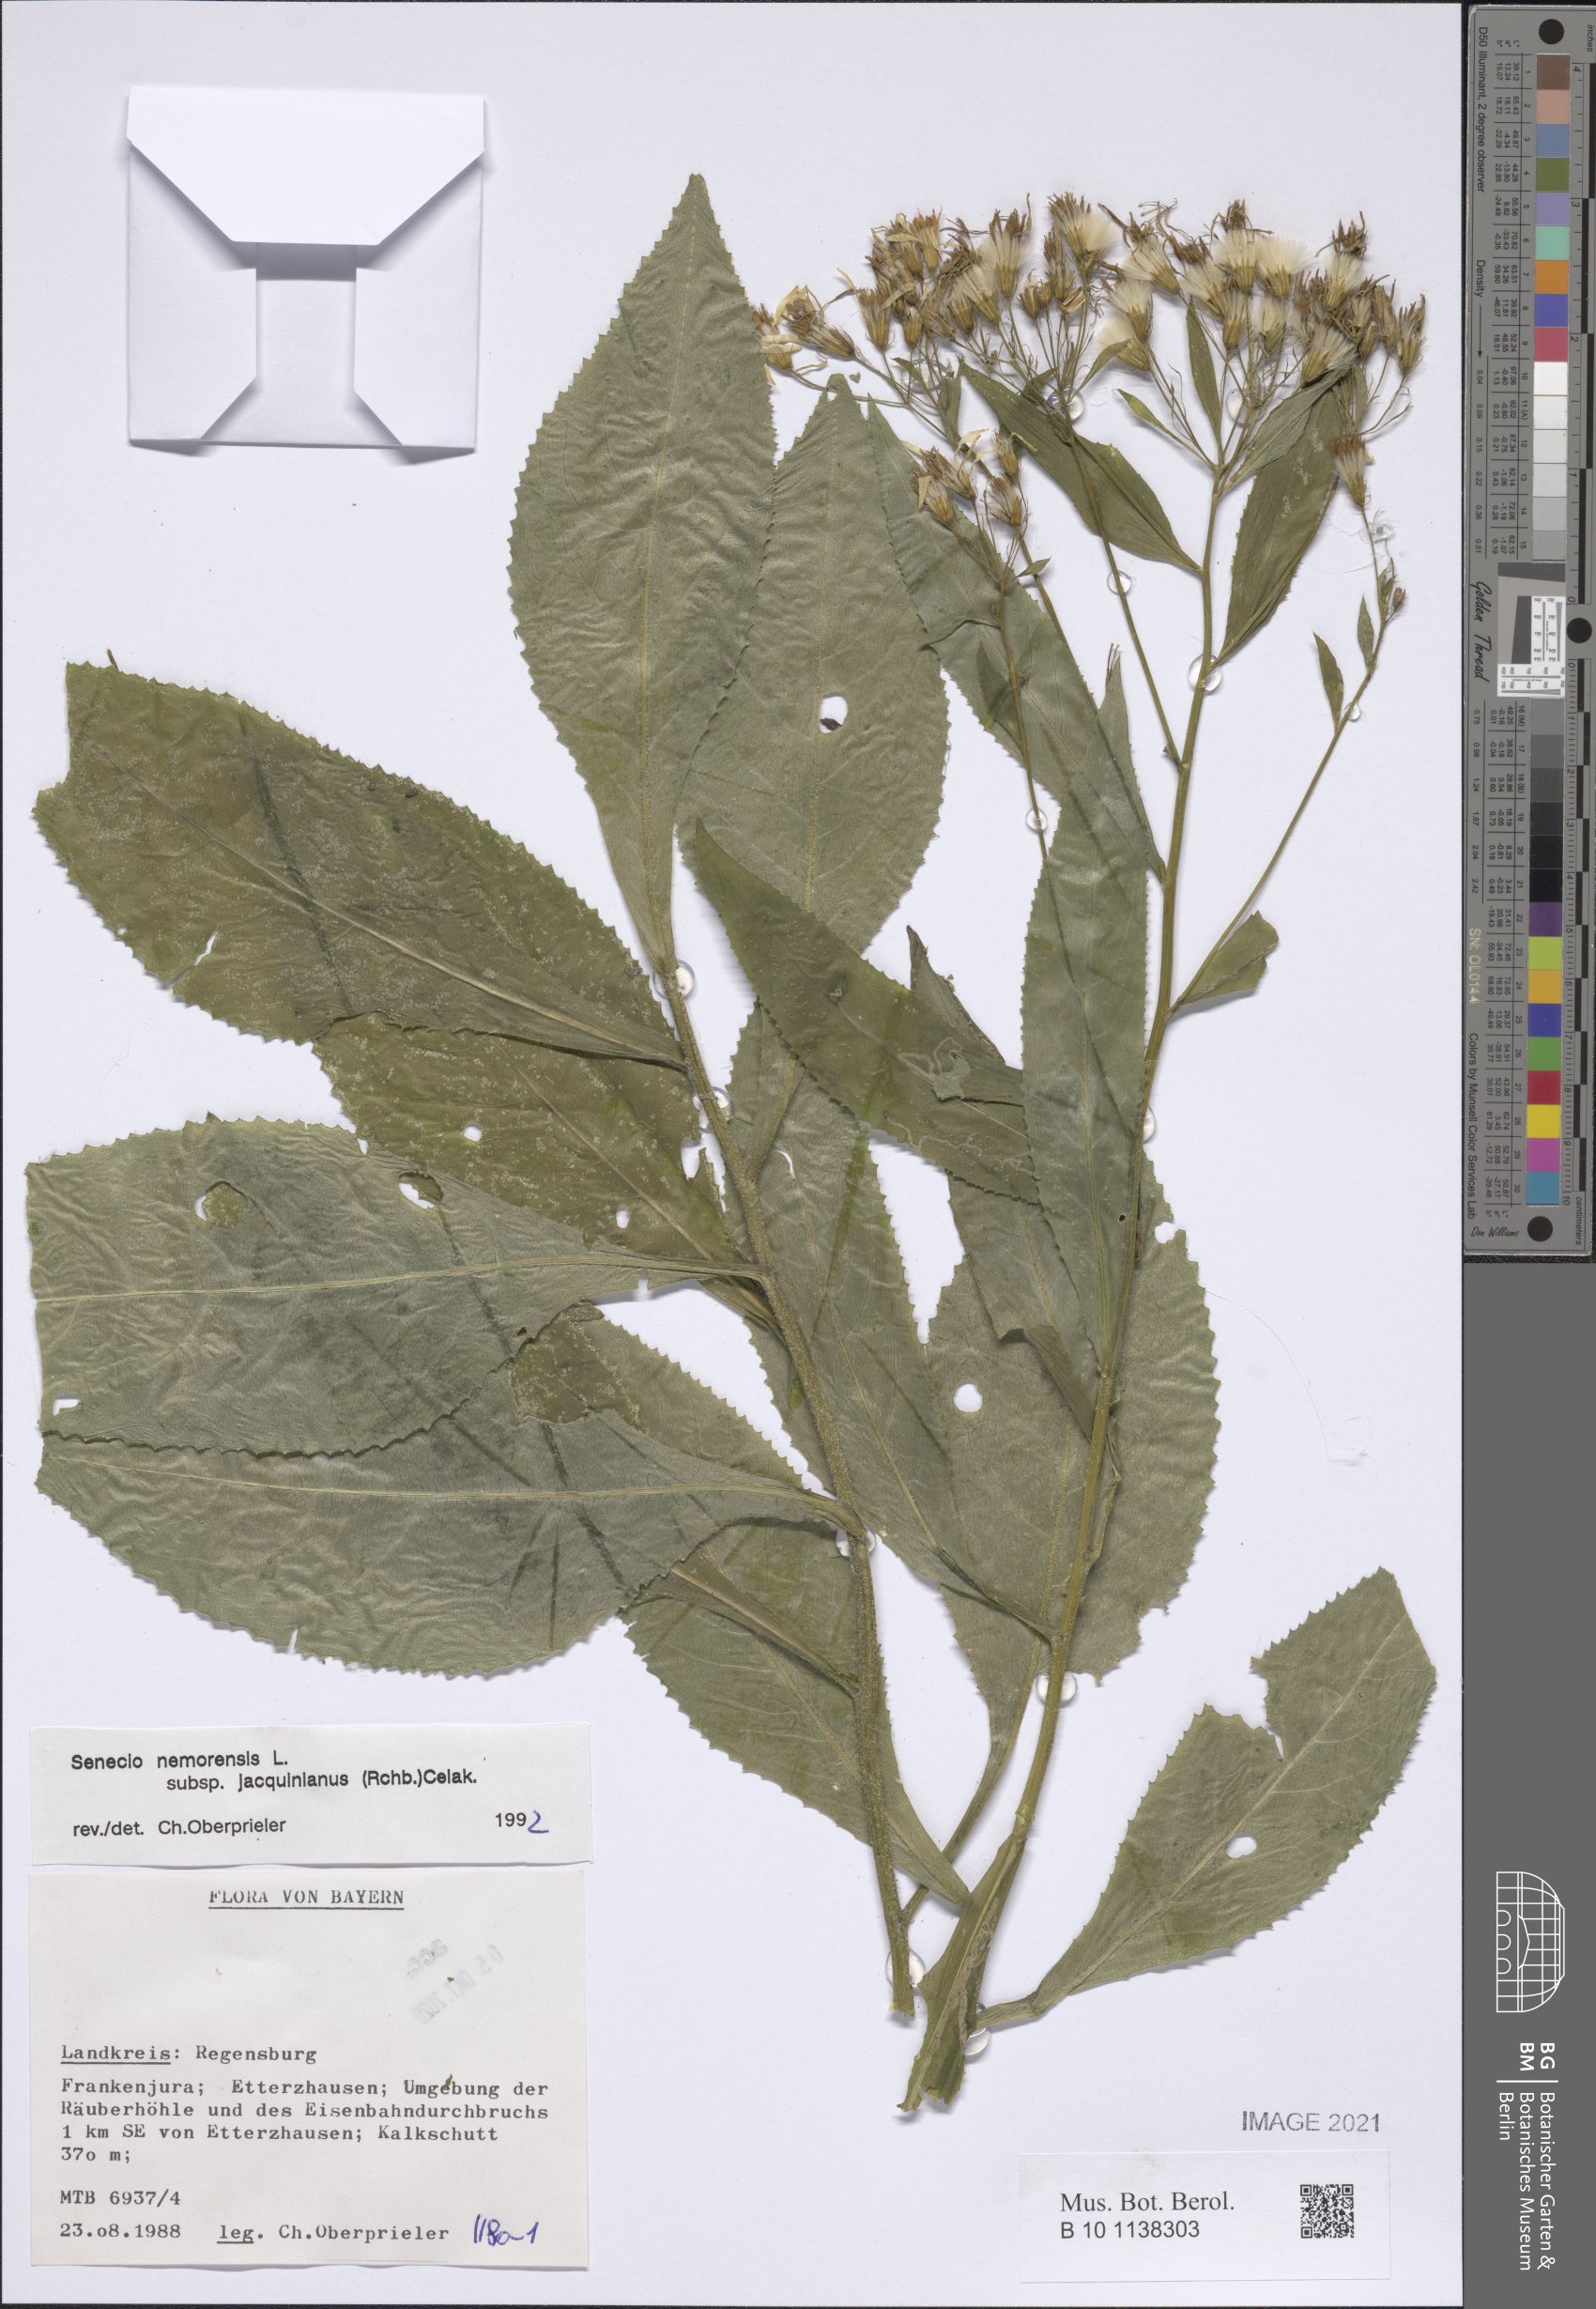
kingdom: Plantae
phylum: Tracheophyta
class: Magnoliopsida
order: Asterales
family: Asteraceae
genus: Senecio
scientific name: Senecio germanicus
